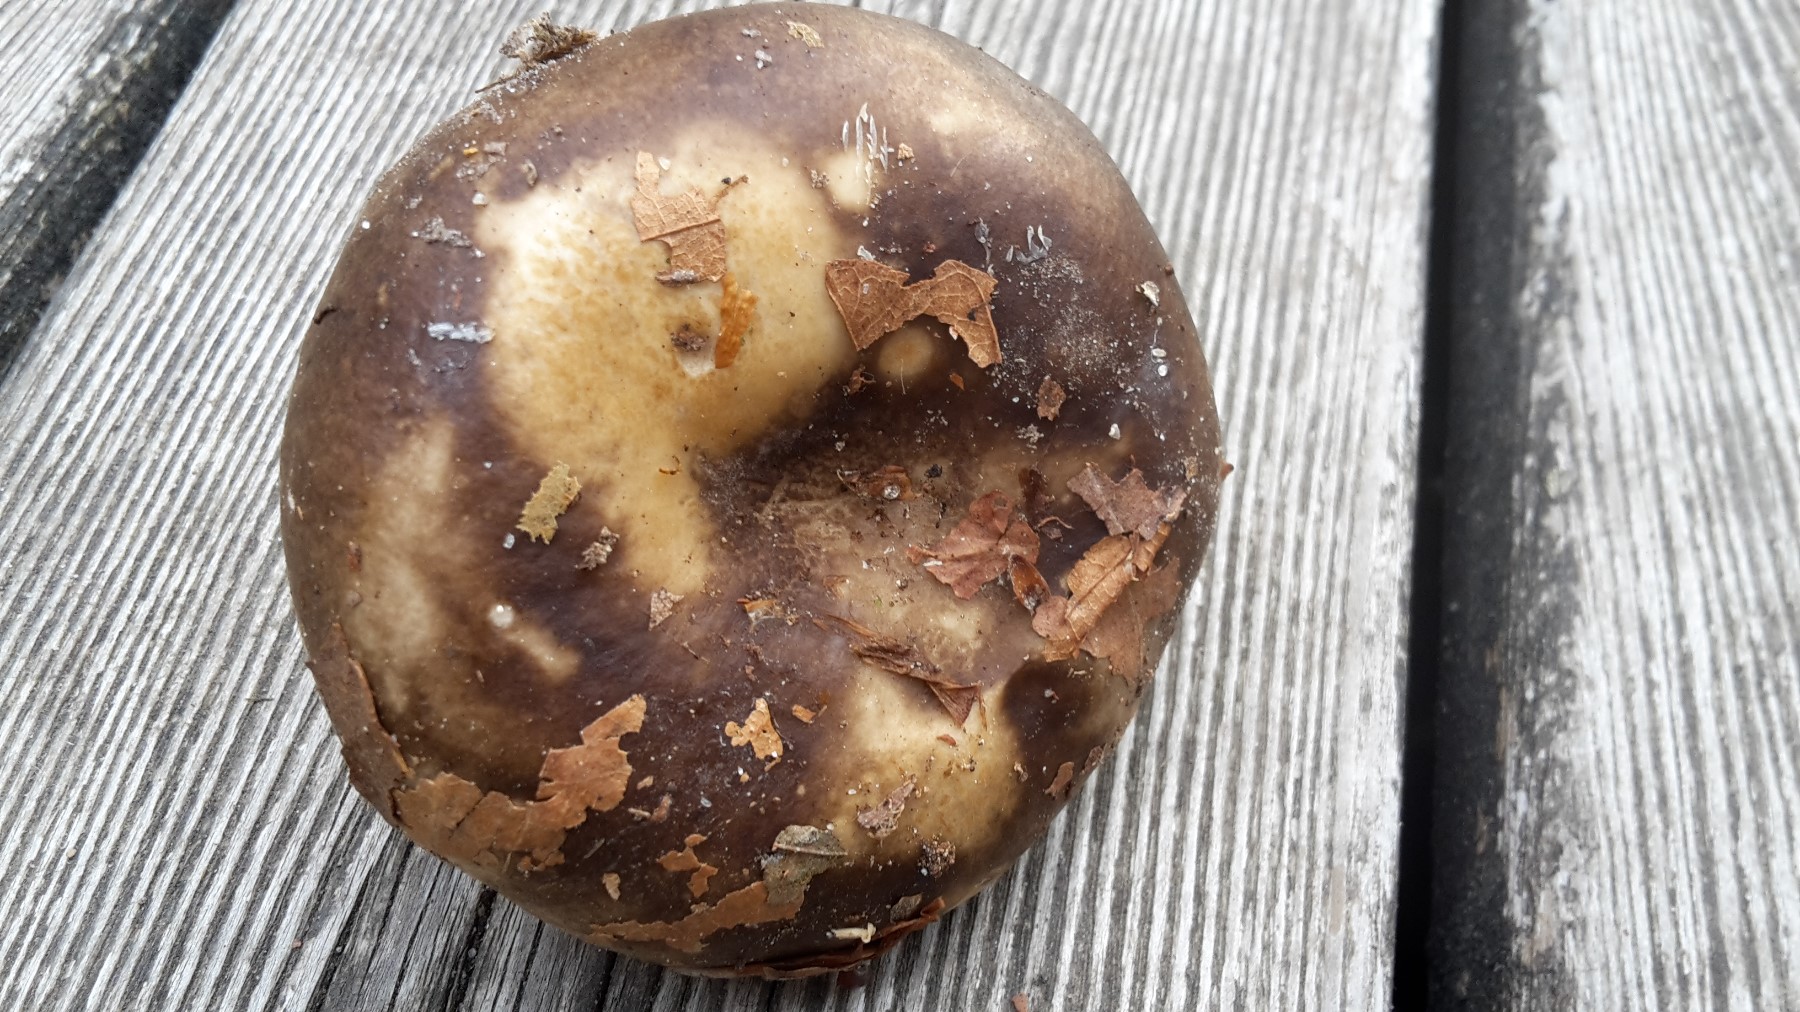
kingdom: Fungi
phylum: Basidiomycota
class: Agaricomycetes
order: Russulales
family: Russulaceae
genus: Russula
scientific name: Russula densifolia
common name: tætbladet skørhat
